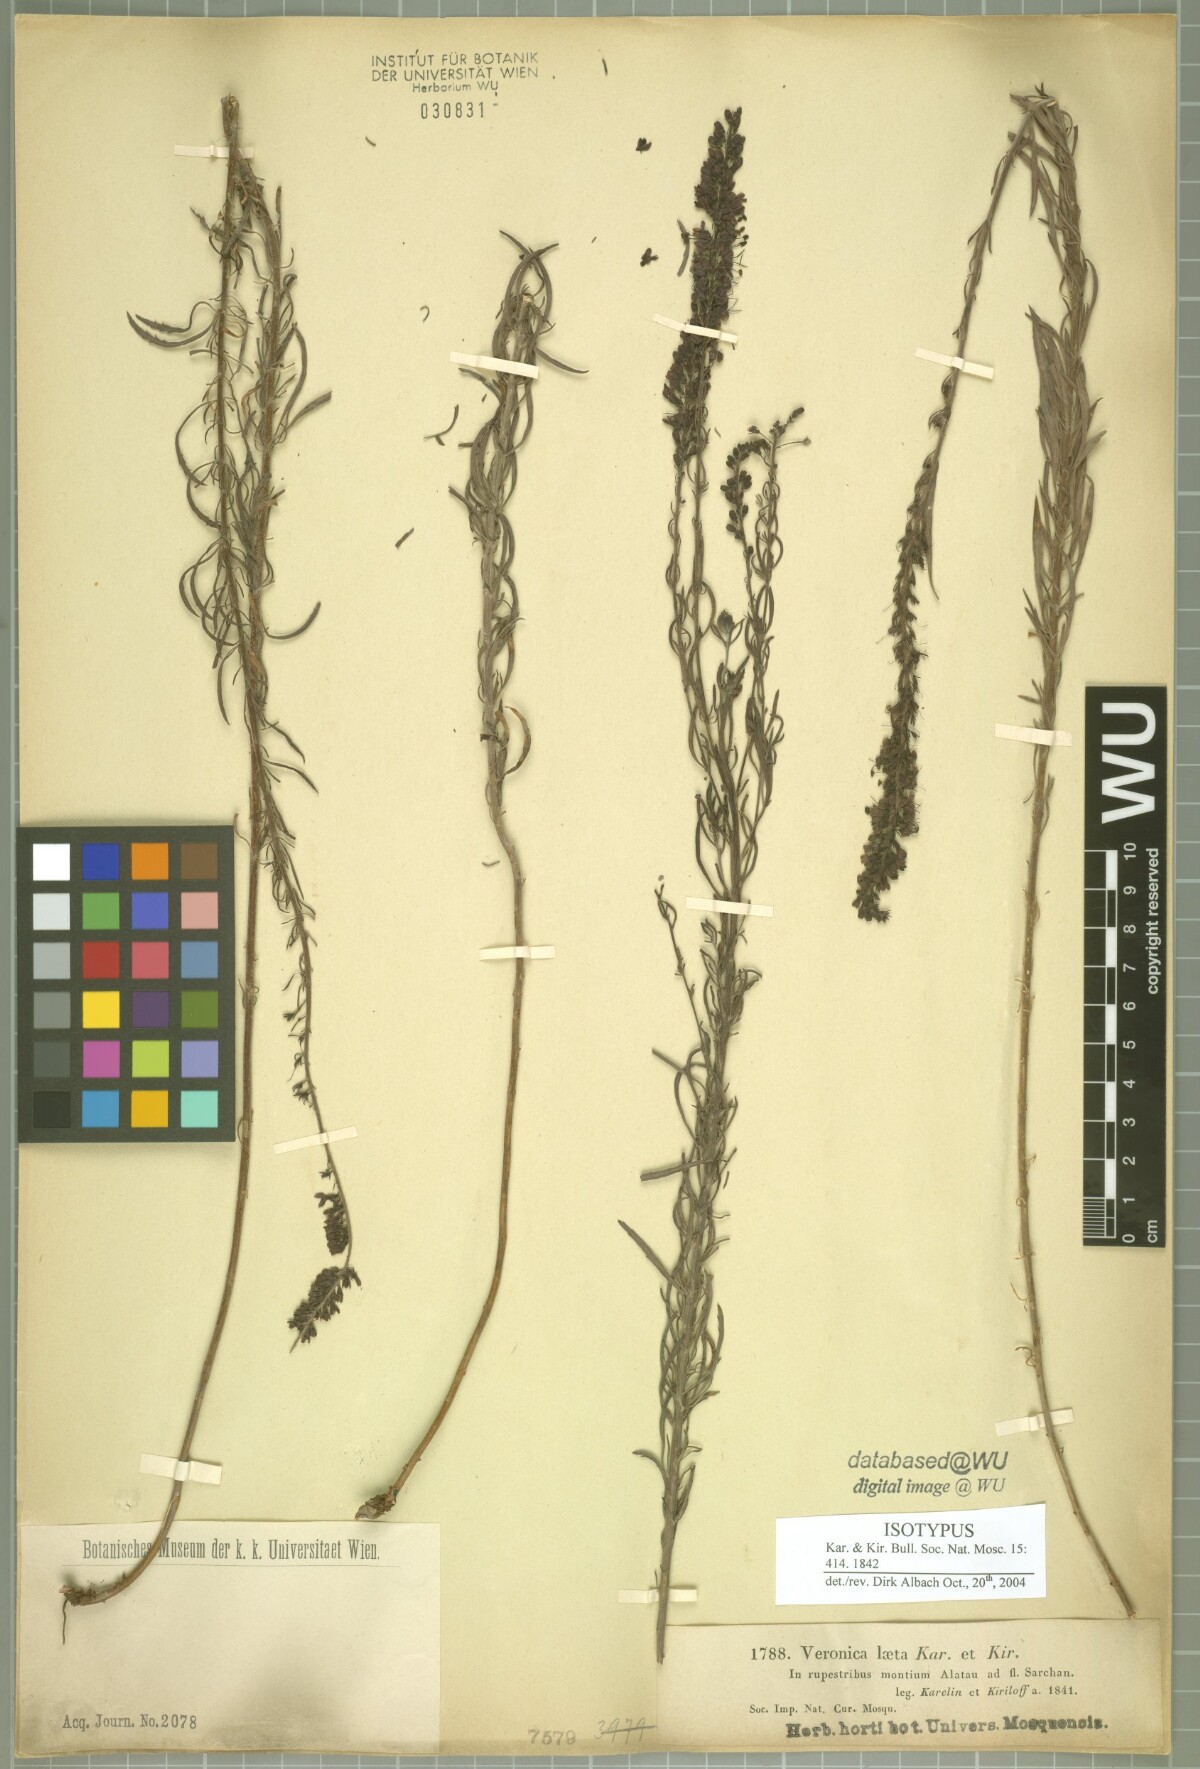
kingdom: Plantae
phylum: Tracheophyta
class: Magnoliopsida
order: Lamiales
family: Plantaginaceae
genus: Veronica
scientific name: Veronica laeta
